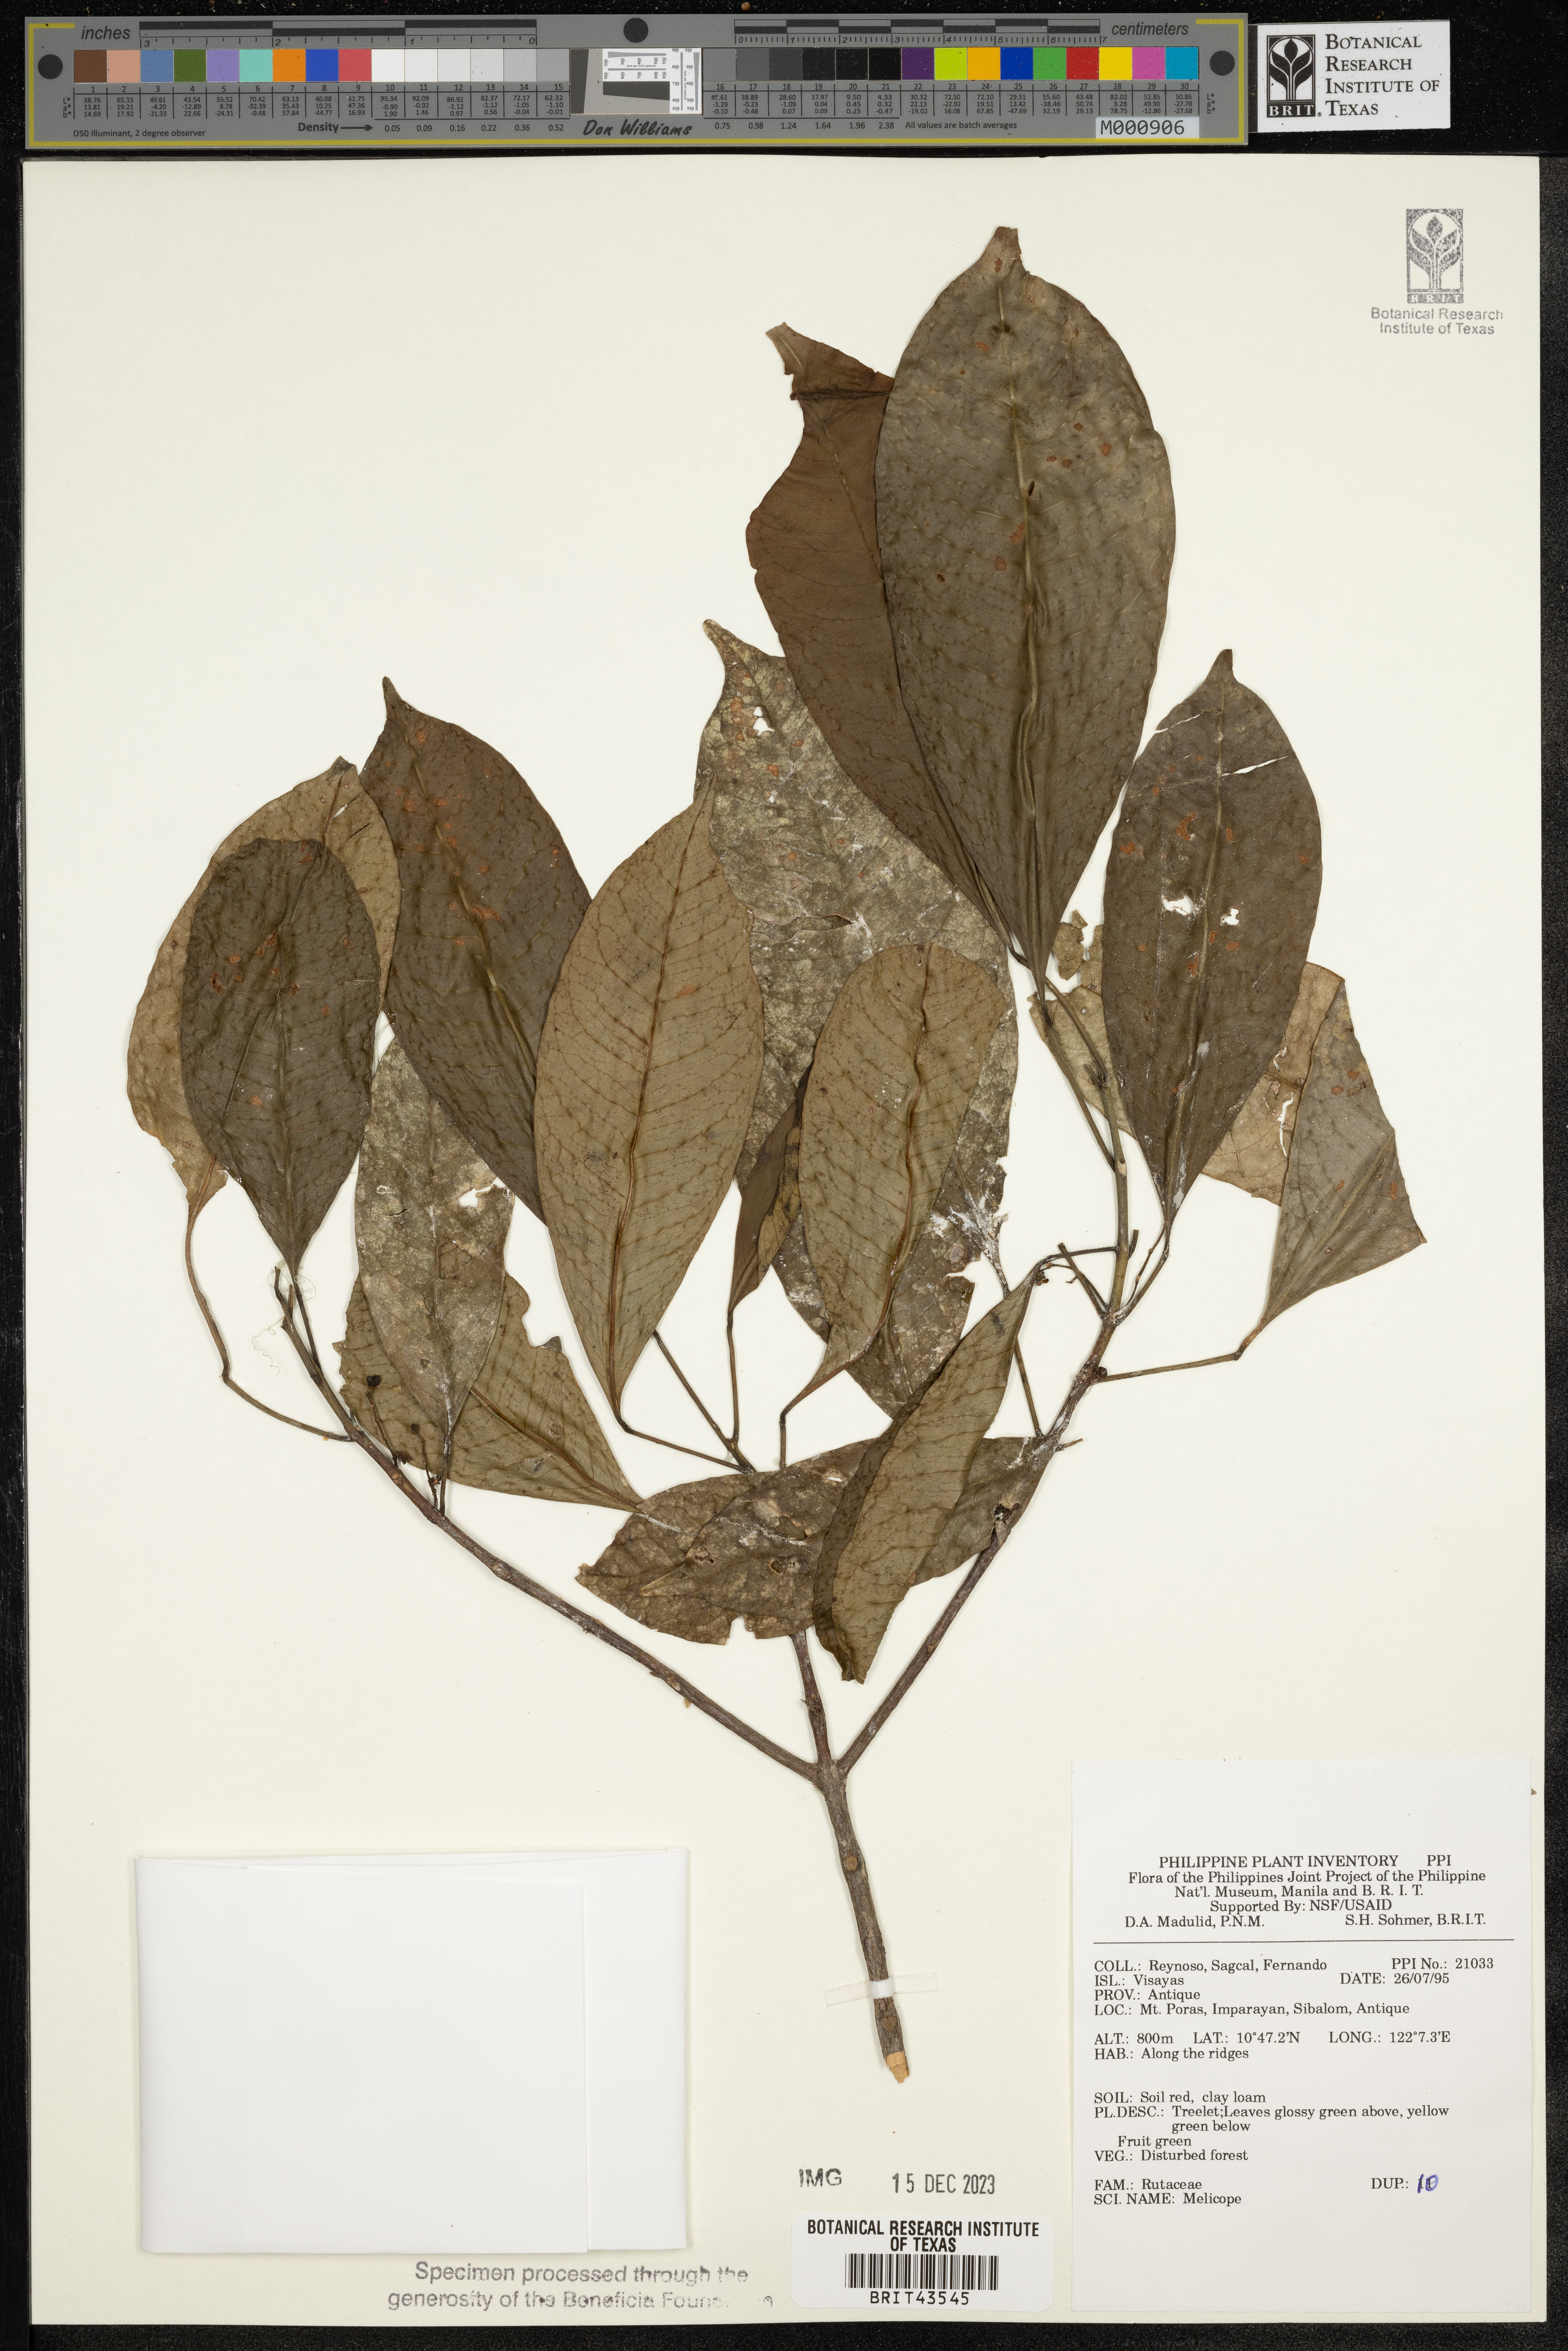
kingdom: Plantae
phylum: Tracheophyta
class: Magnoliopsida
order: Sapindales
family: Rutaceae
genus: Melicope
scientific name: Melicope
